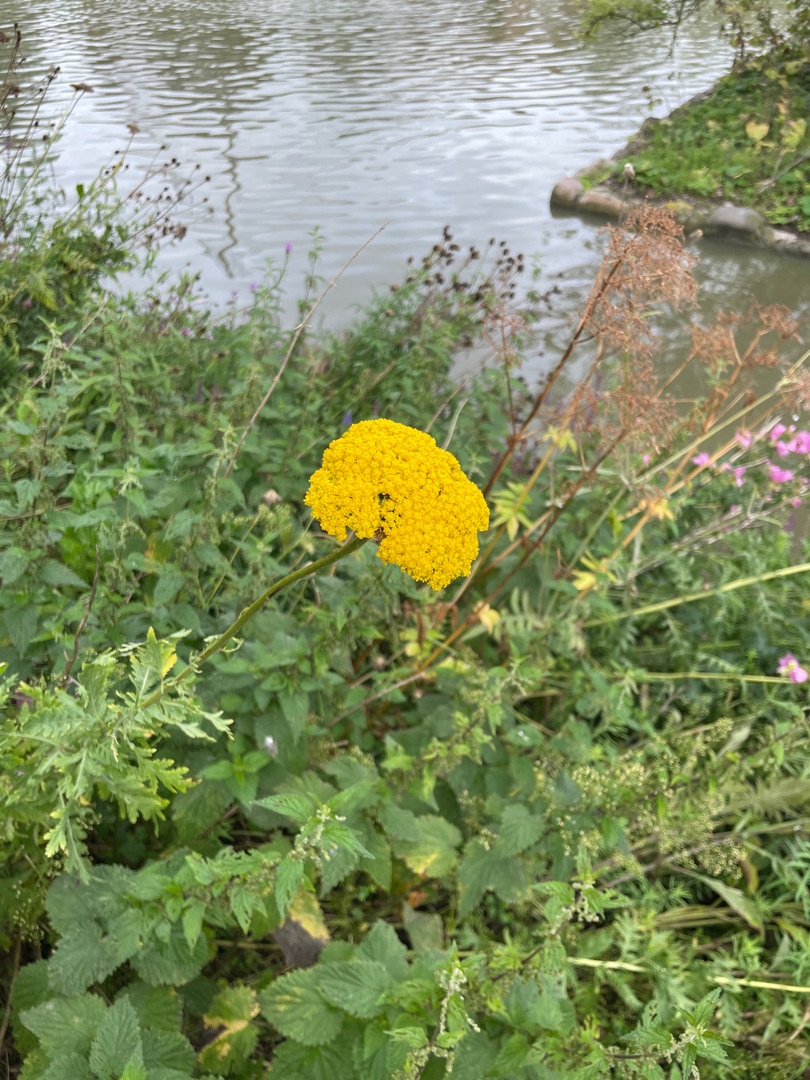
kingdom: Plantae
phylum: Tracheophyta
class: Magnoliopsida
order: Asterales
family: Asteraceae
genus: Achillea
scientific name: Achillea filipendulina
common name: Pragt-røllike
